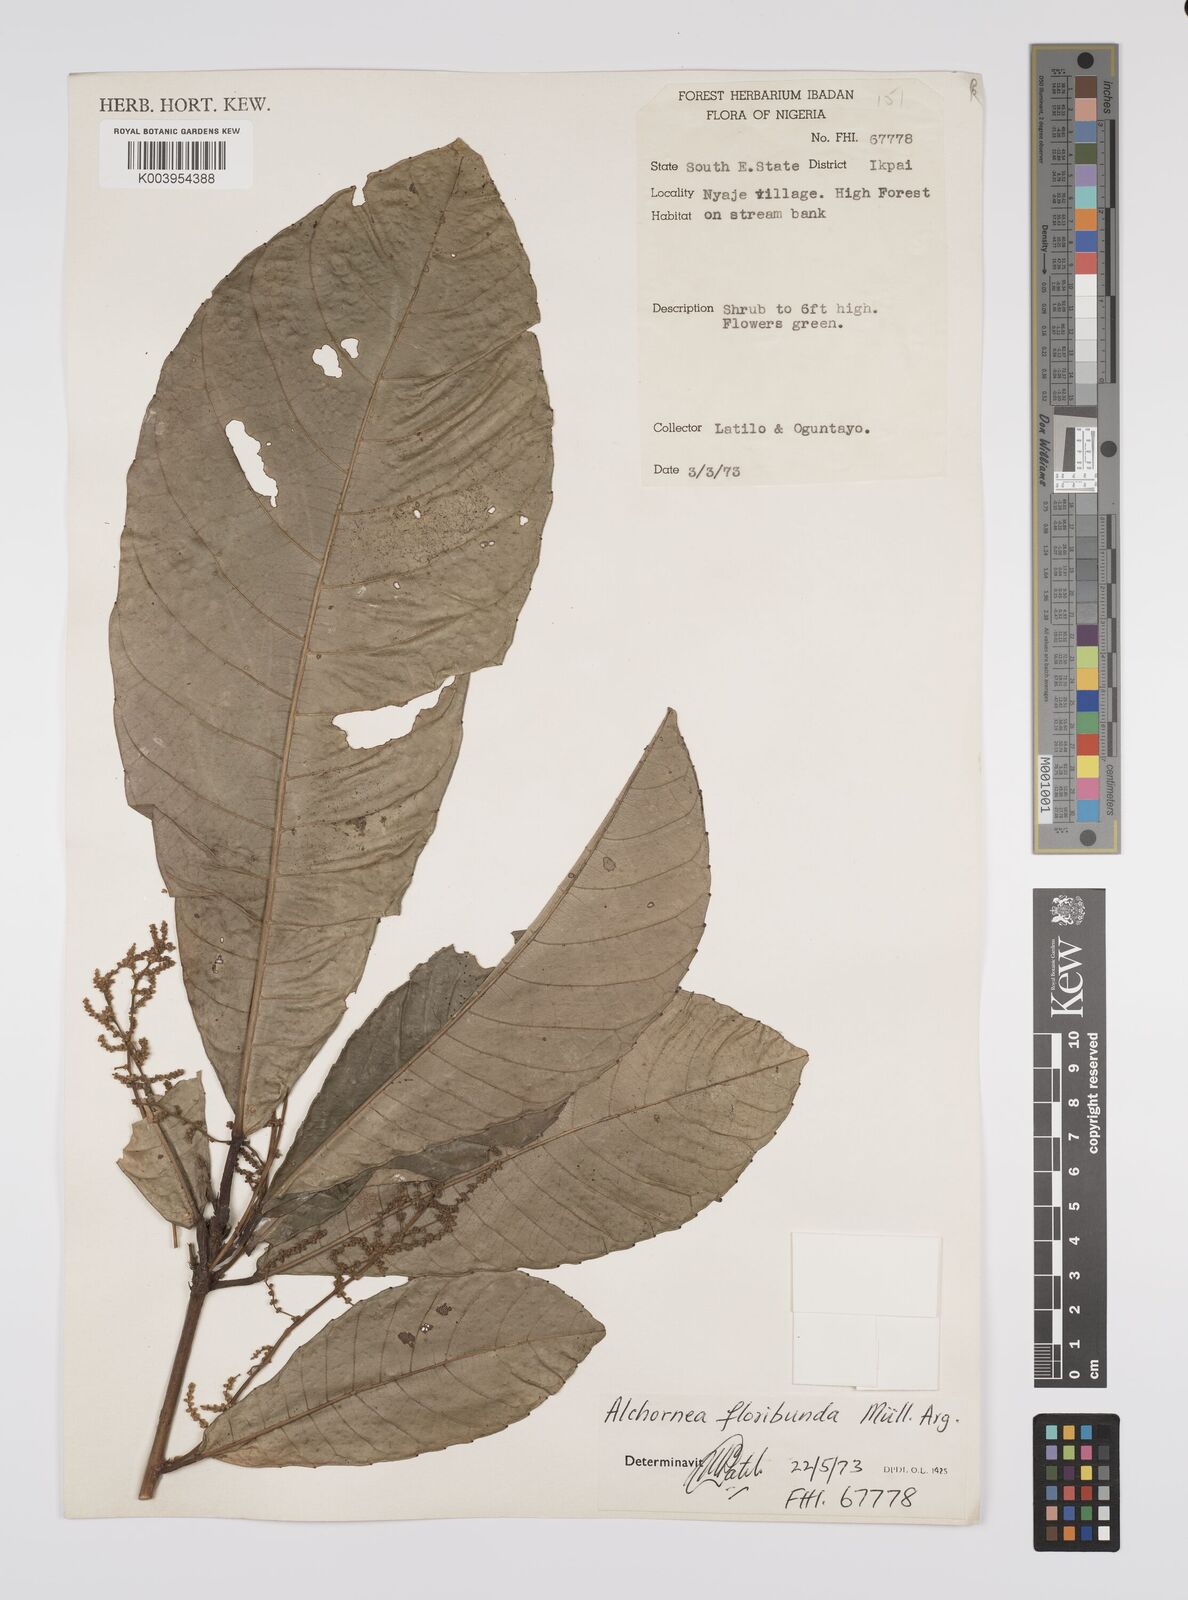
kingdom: Plantae
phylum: Tracheophyta
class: Magnoliopsida
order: Malpighiales
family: Euphorbiaceae
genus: Alchornea
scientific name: Alchornea floribunda
